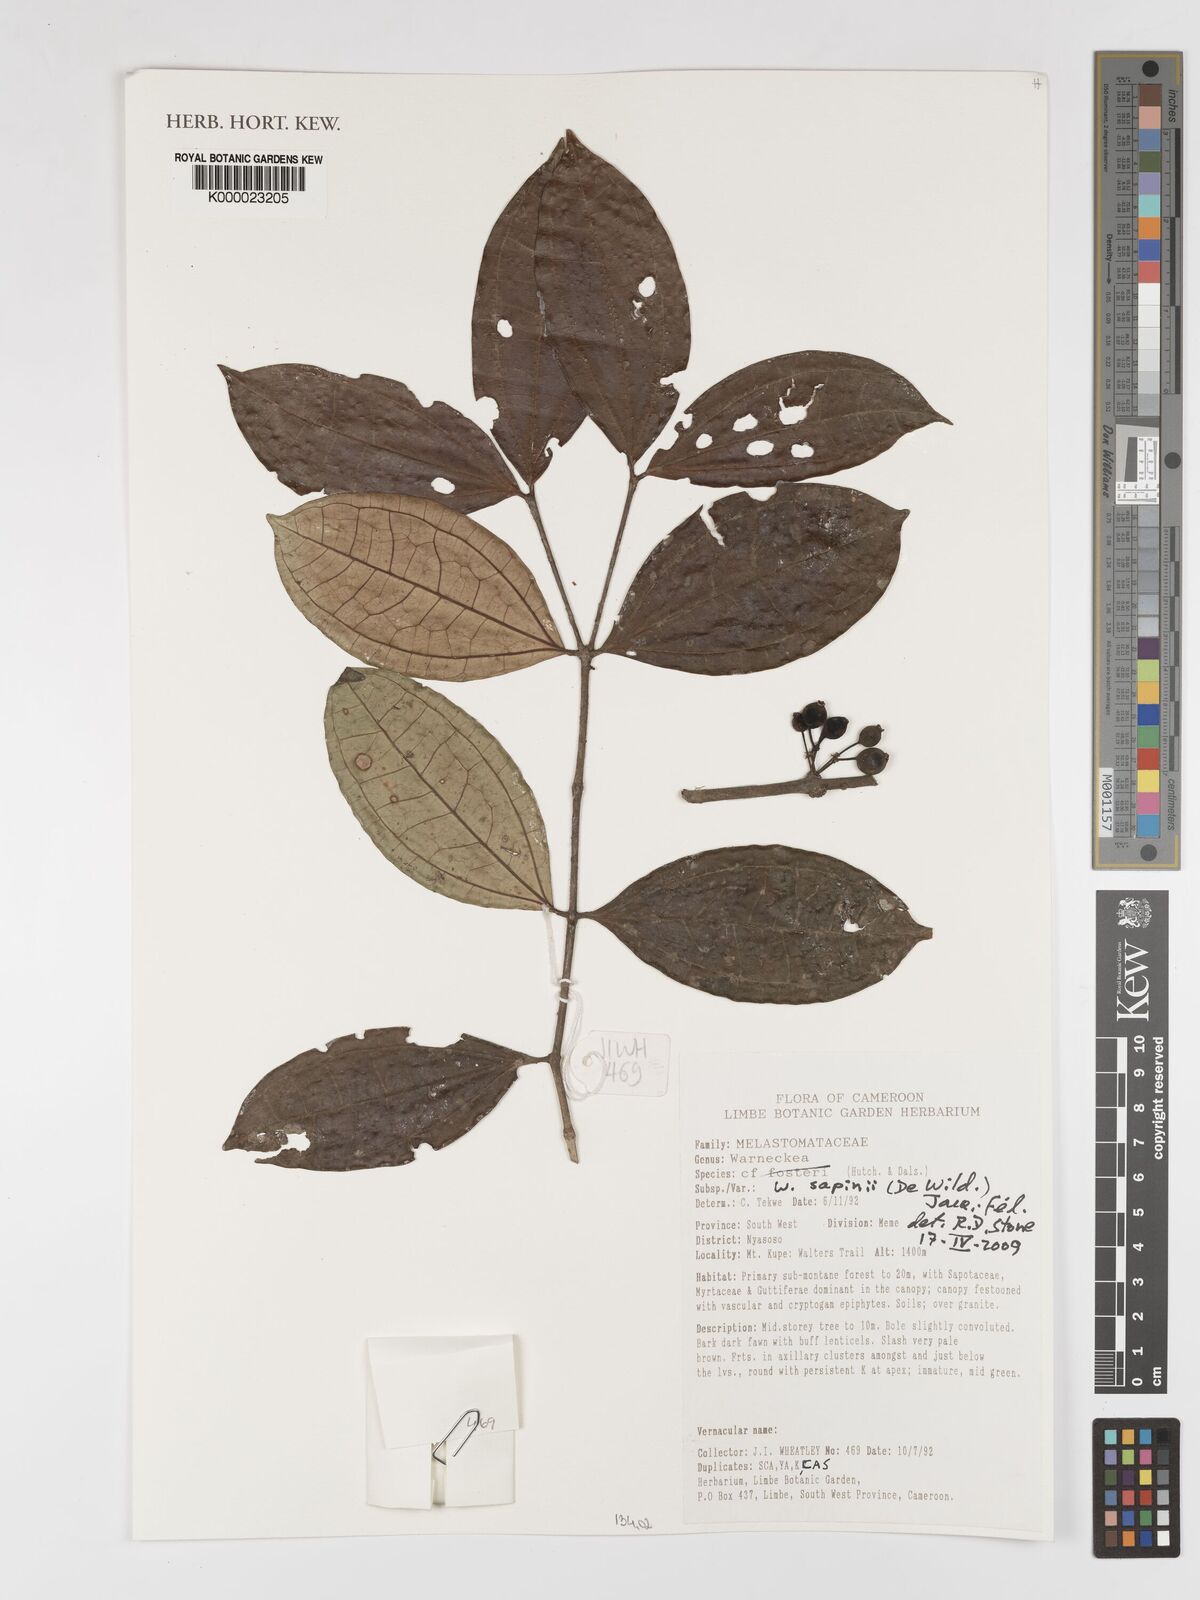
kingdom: Plantae
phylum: Tracheophyta
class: Magnoliopsida
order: Myrtales
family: Melastomataceae
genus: Warneckea
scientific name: Warneckea
